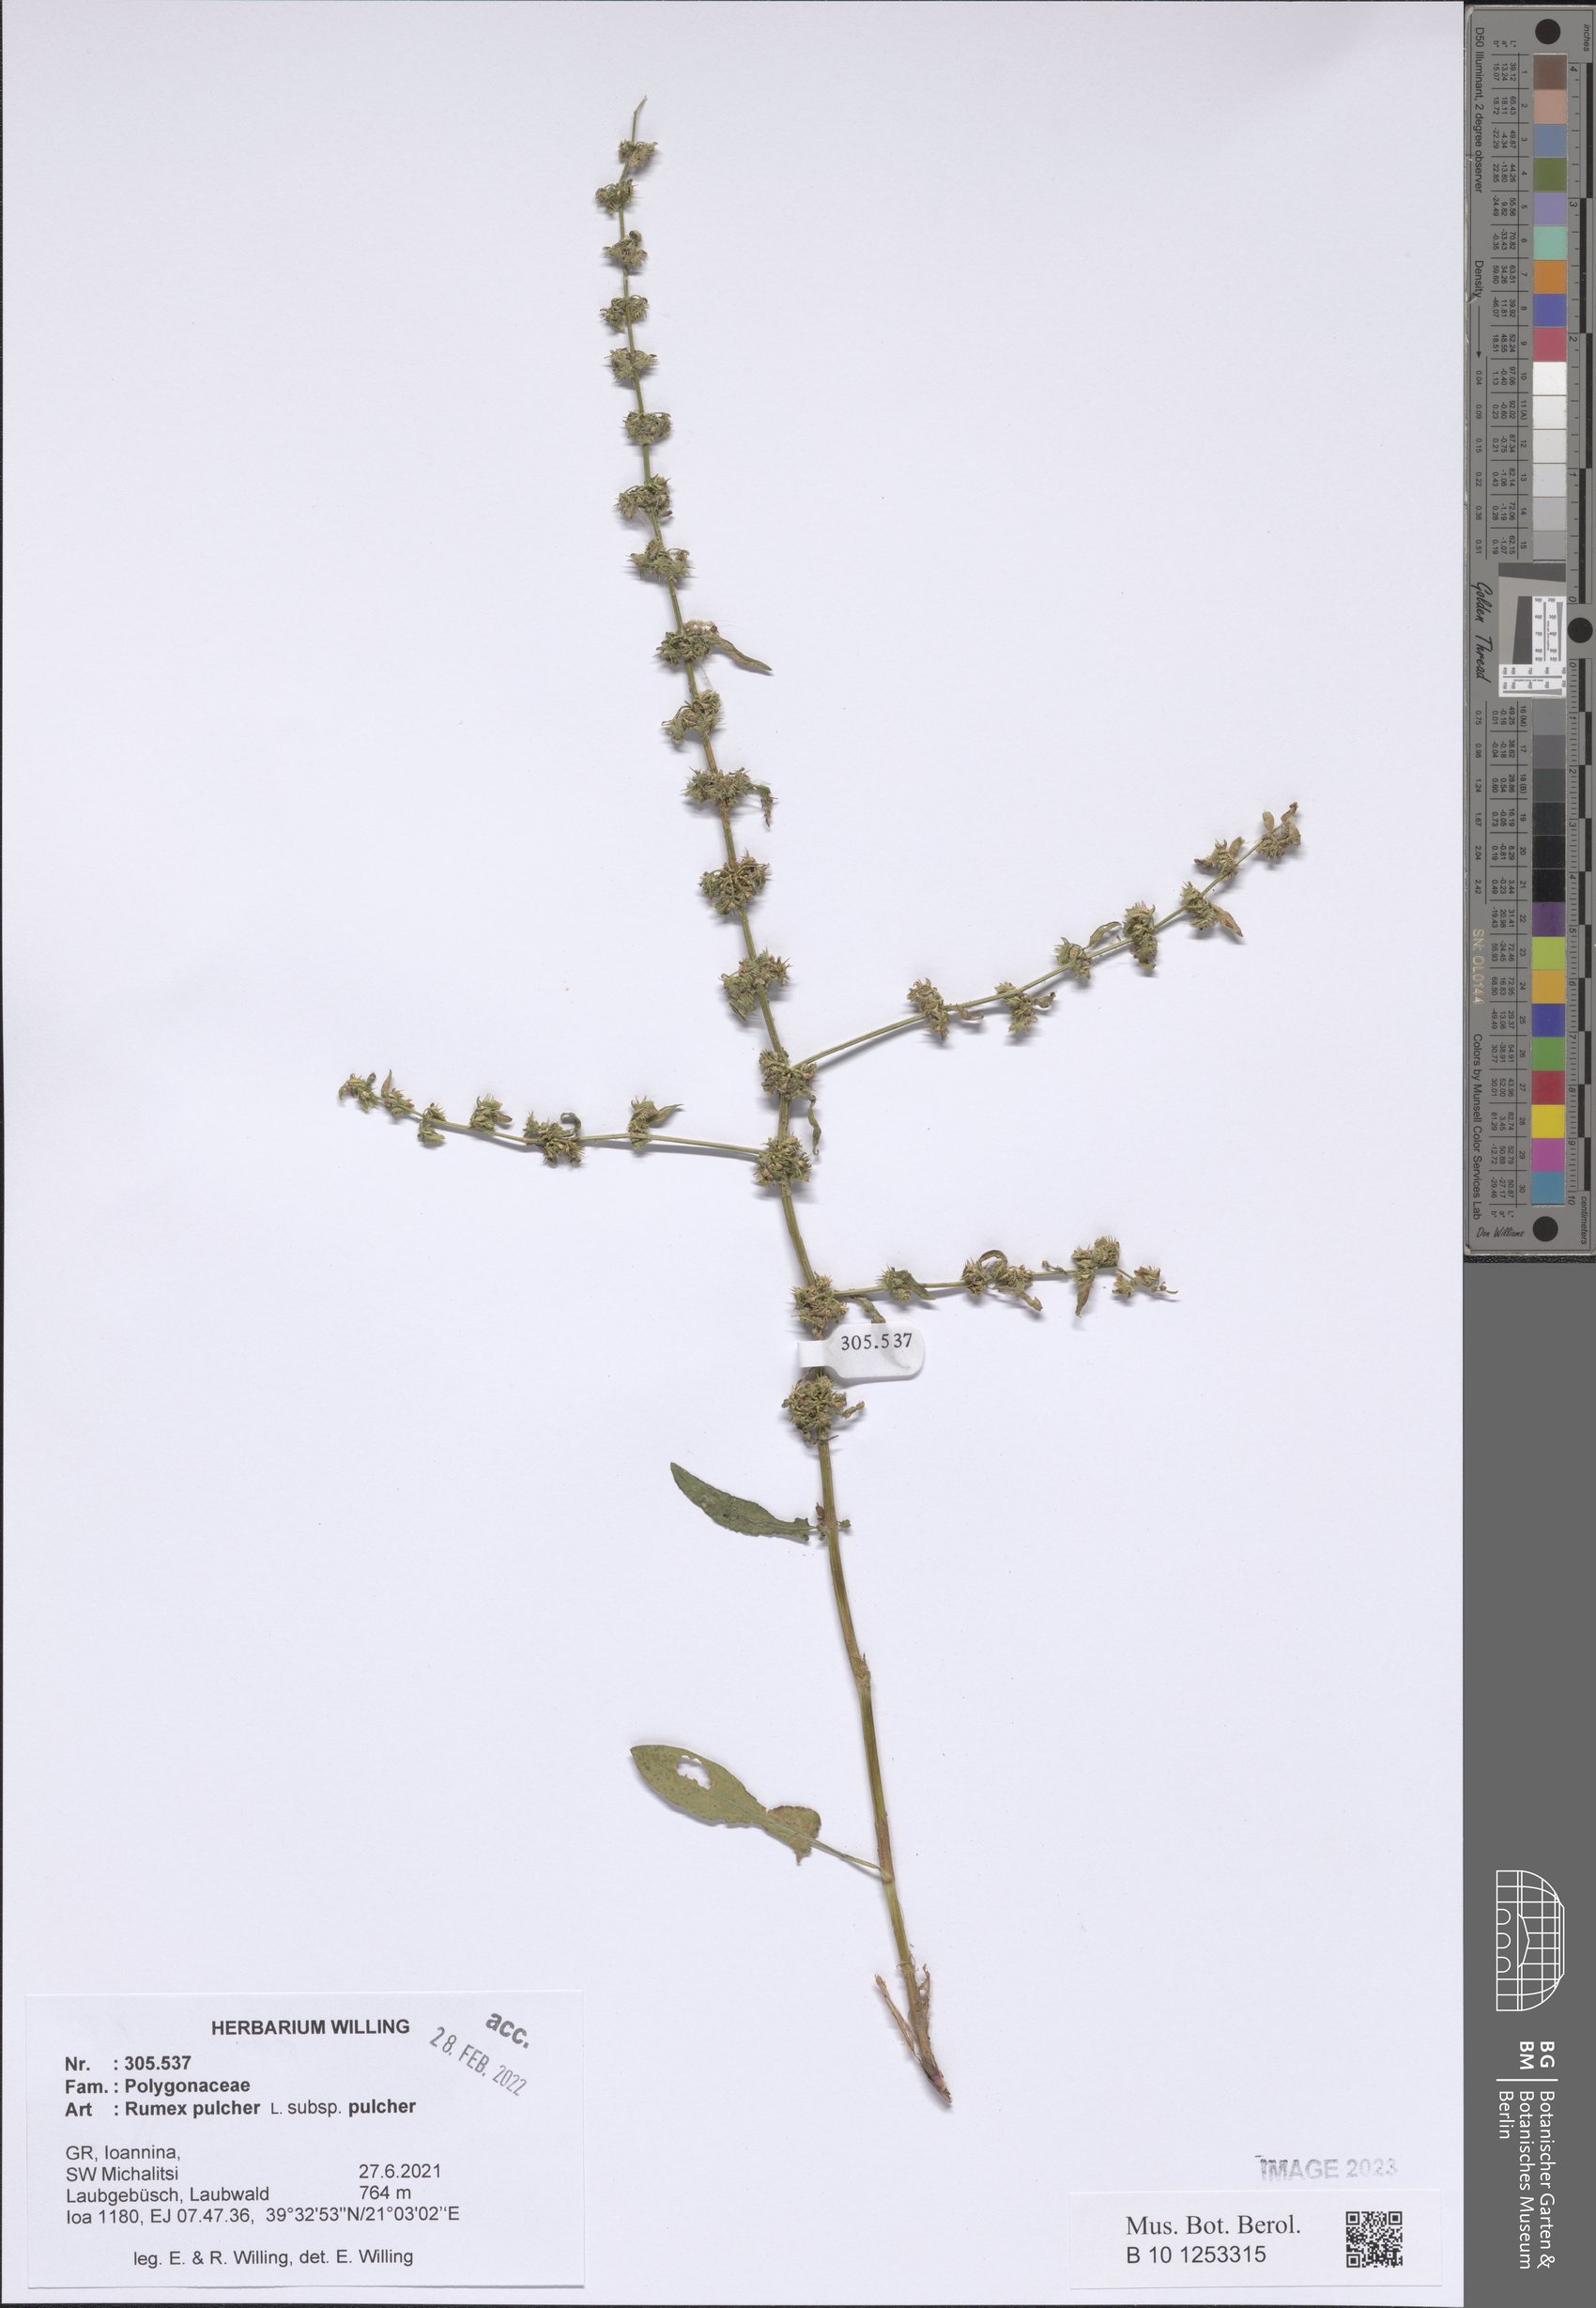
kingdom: Plantae
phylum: Tracheophyta
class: Magnoliopsida
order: Caryophyllales
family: Polygonaceae
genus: Rumex
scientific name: Rumex pulcher
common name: Fiddle dock
